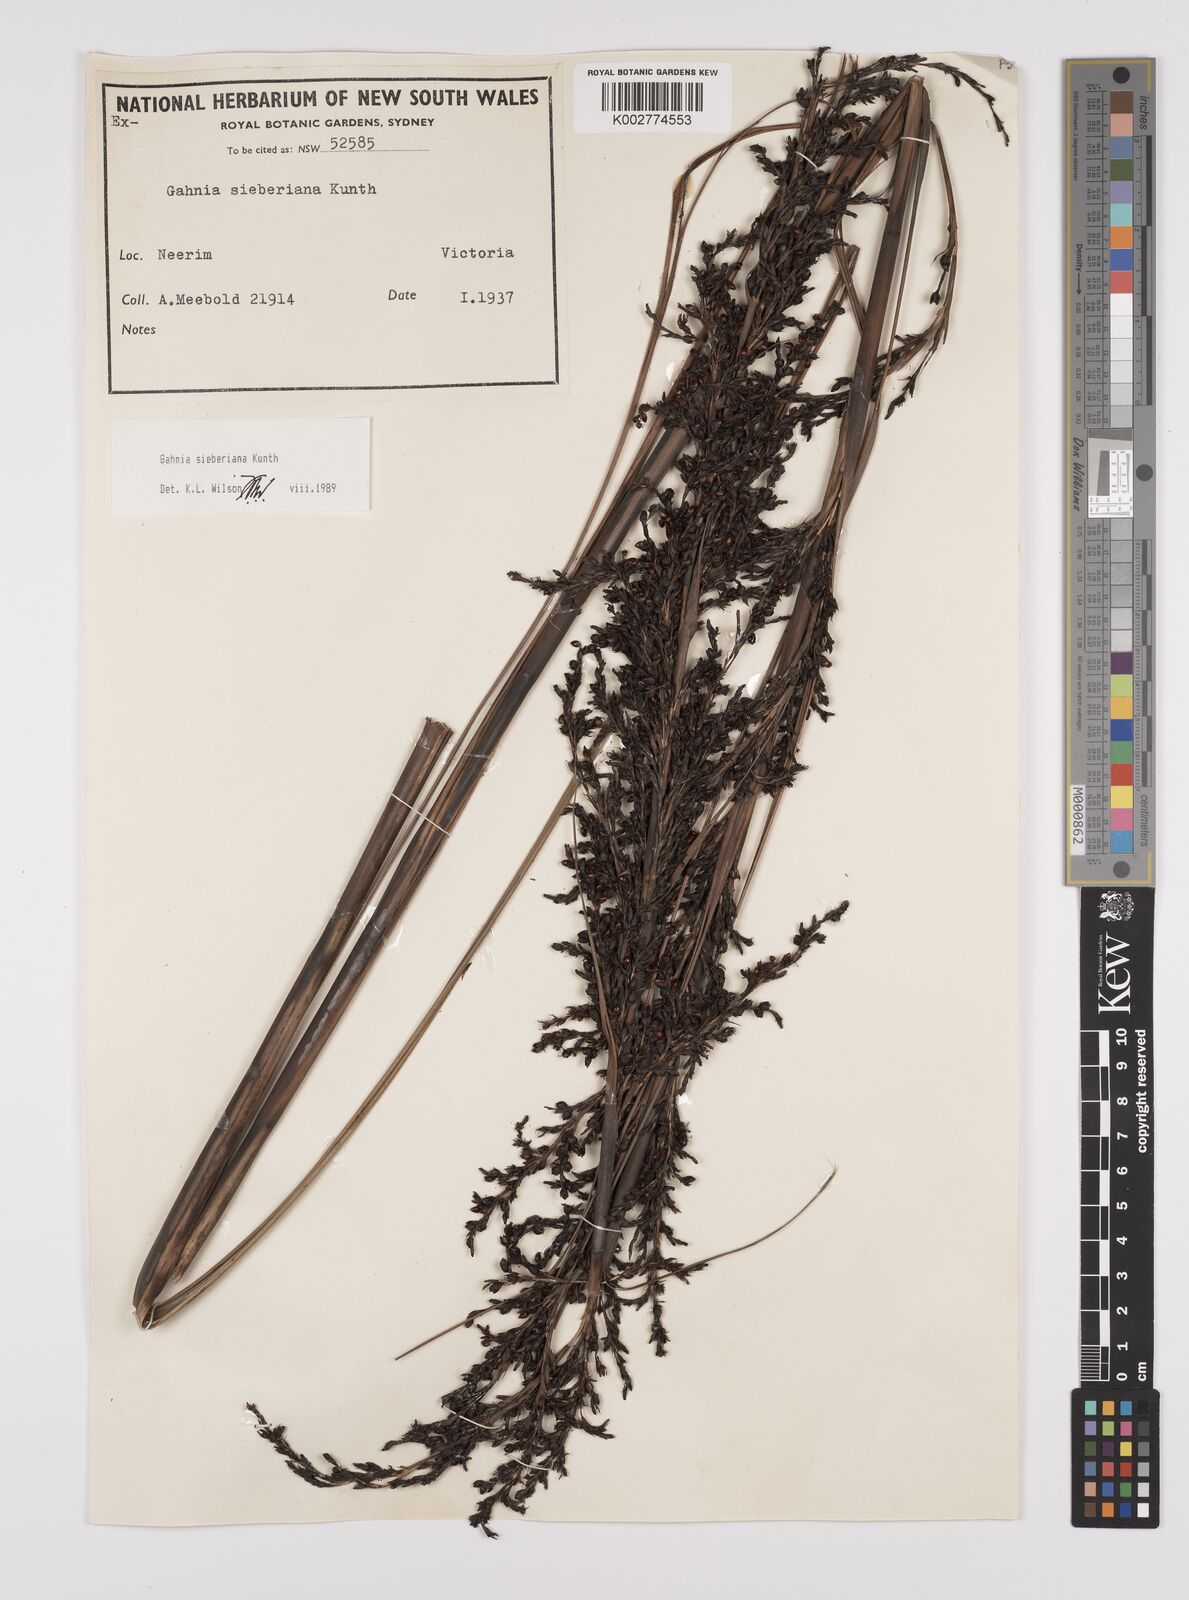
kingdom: Plantae
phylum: Tracheophyta
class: Liliopsida
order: Poales
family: Cyperaceae
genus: Gahnia
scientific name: Gahnia sieberiana
